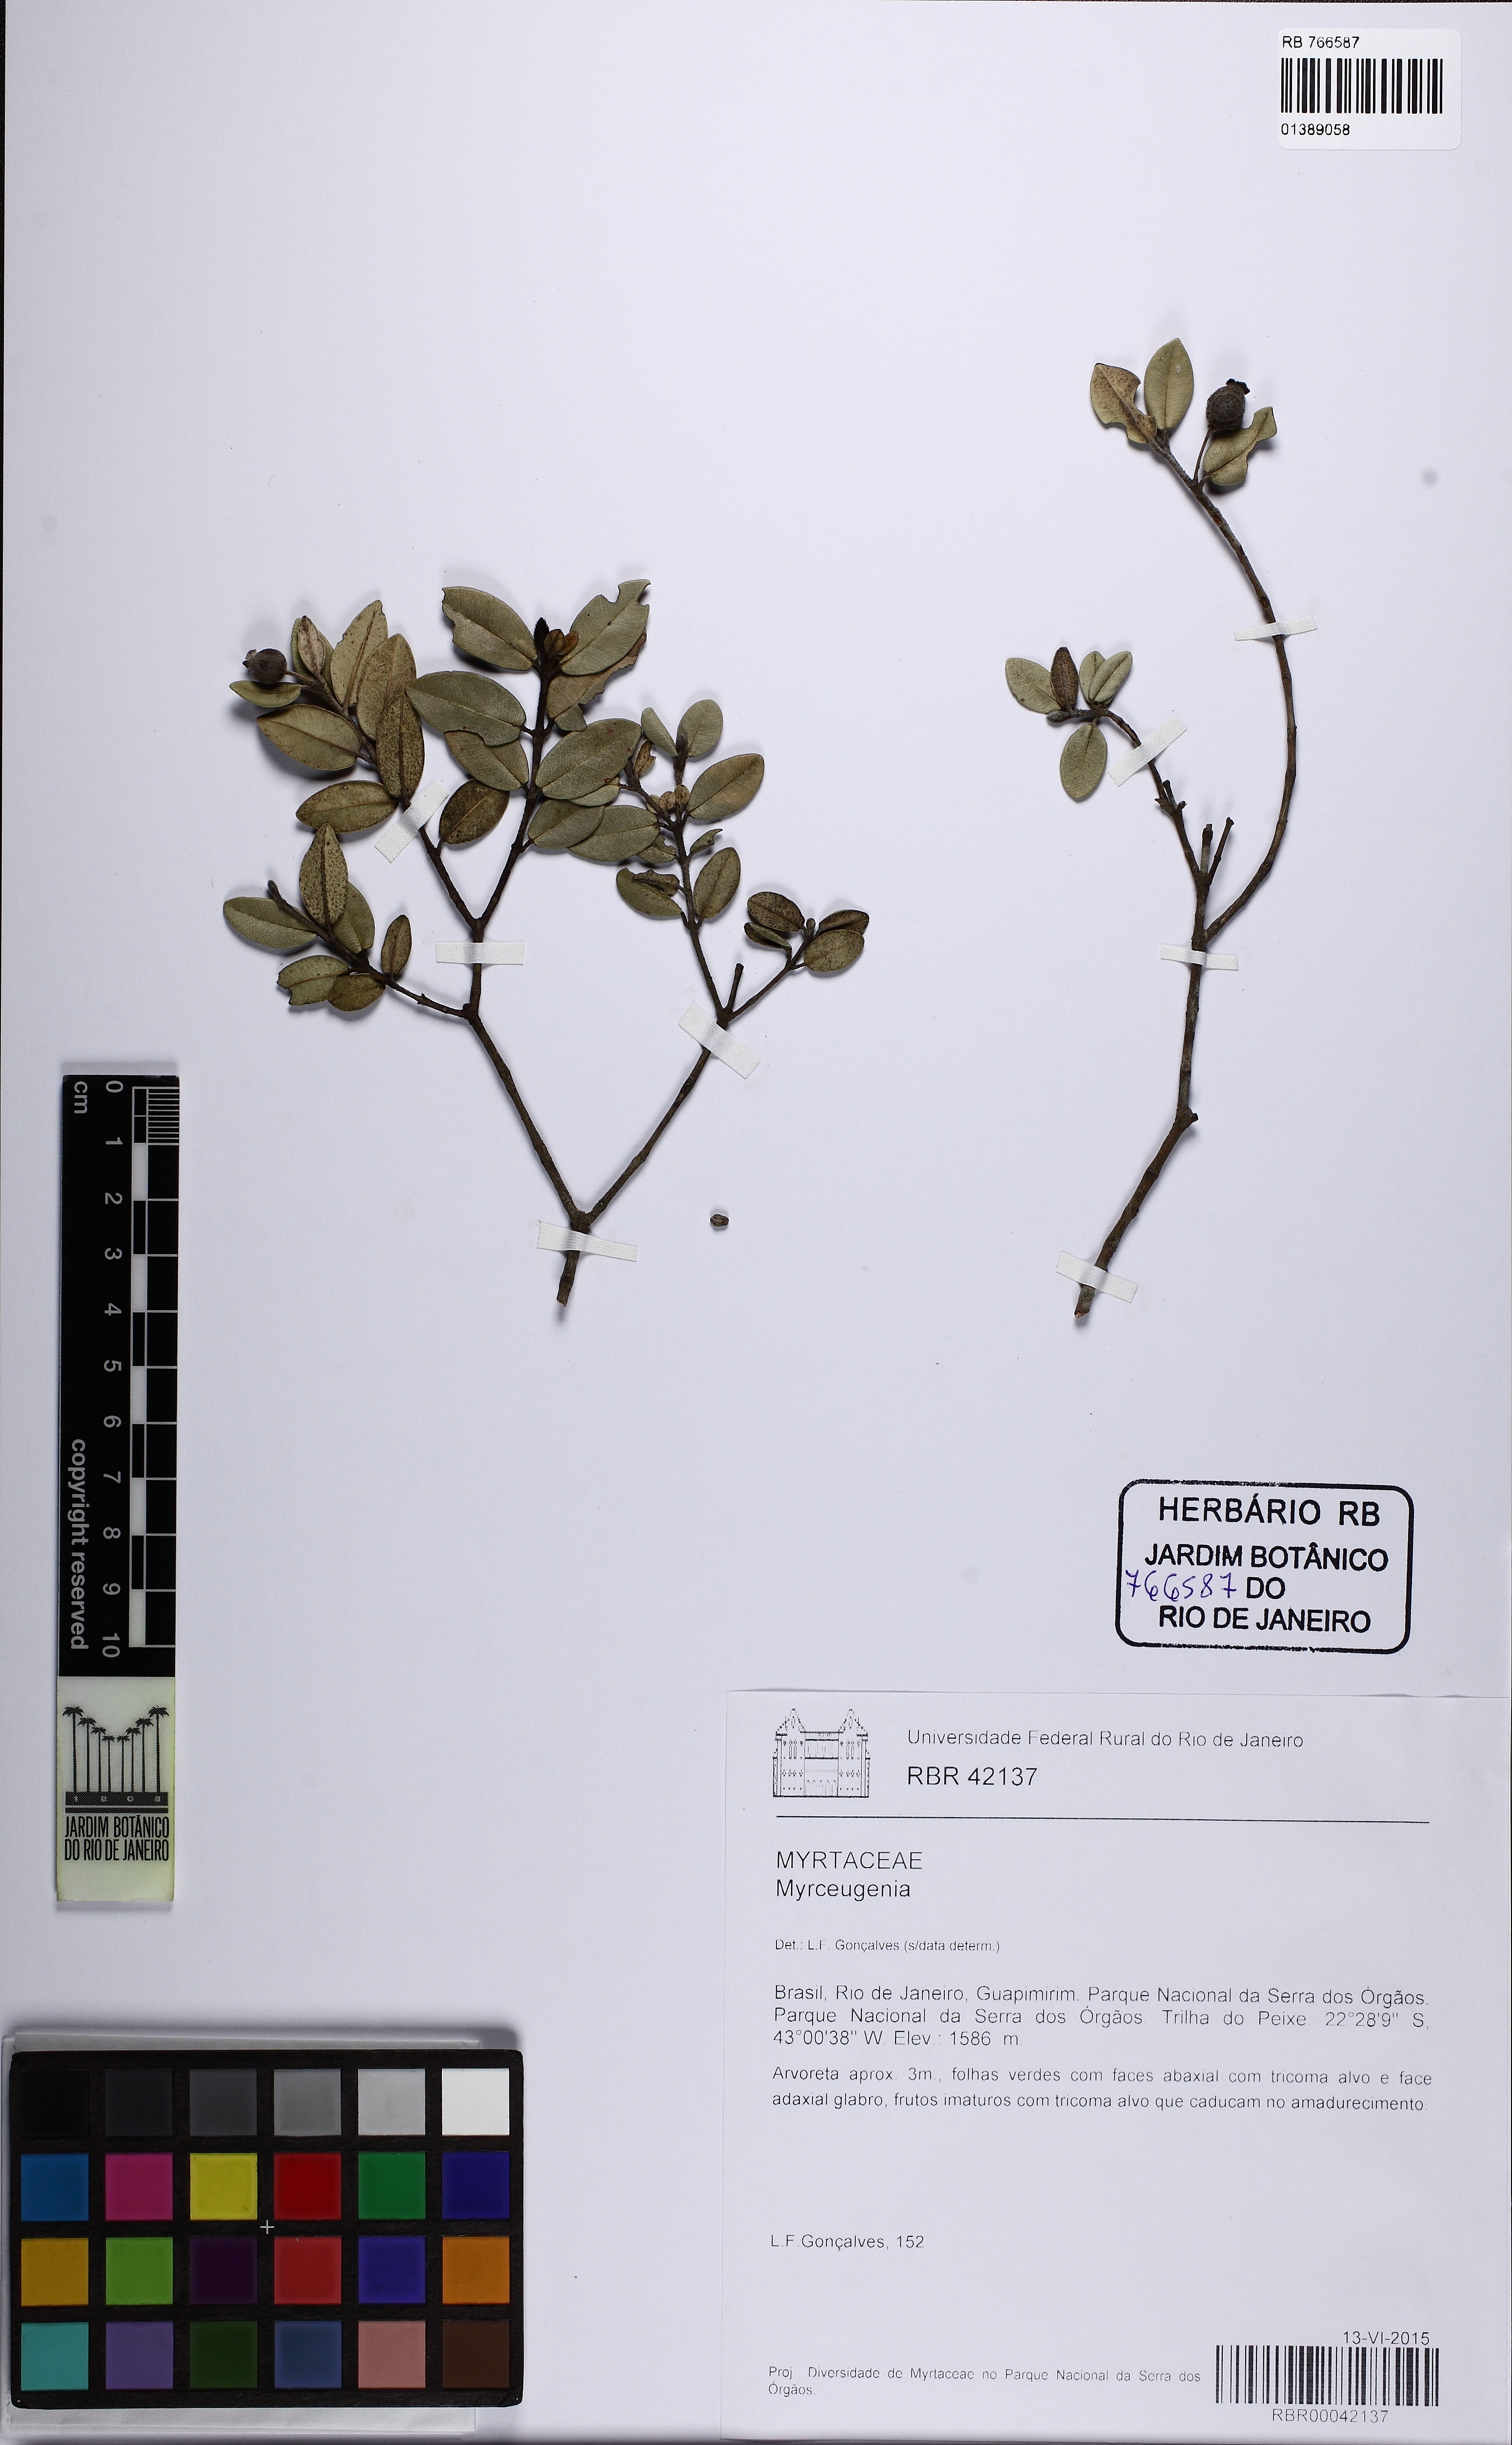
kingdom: Plantae
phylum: Tracheophyta
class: Magnoliopsida
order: Myrtales
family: Myrtaceae
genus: Myrceugenia
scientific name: Myrceugenia
